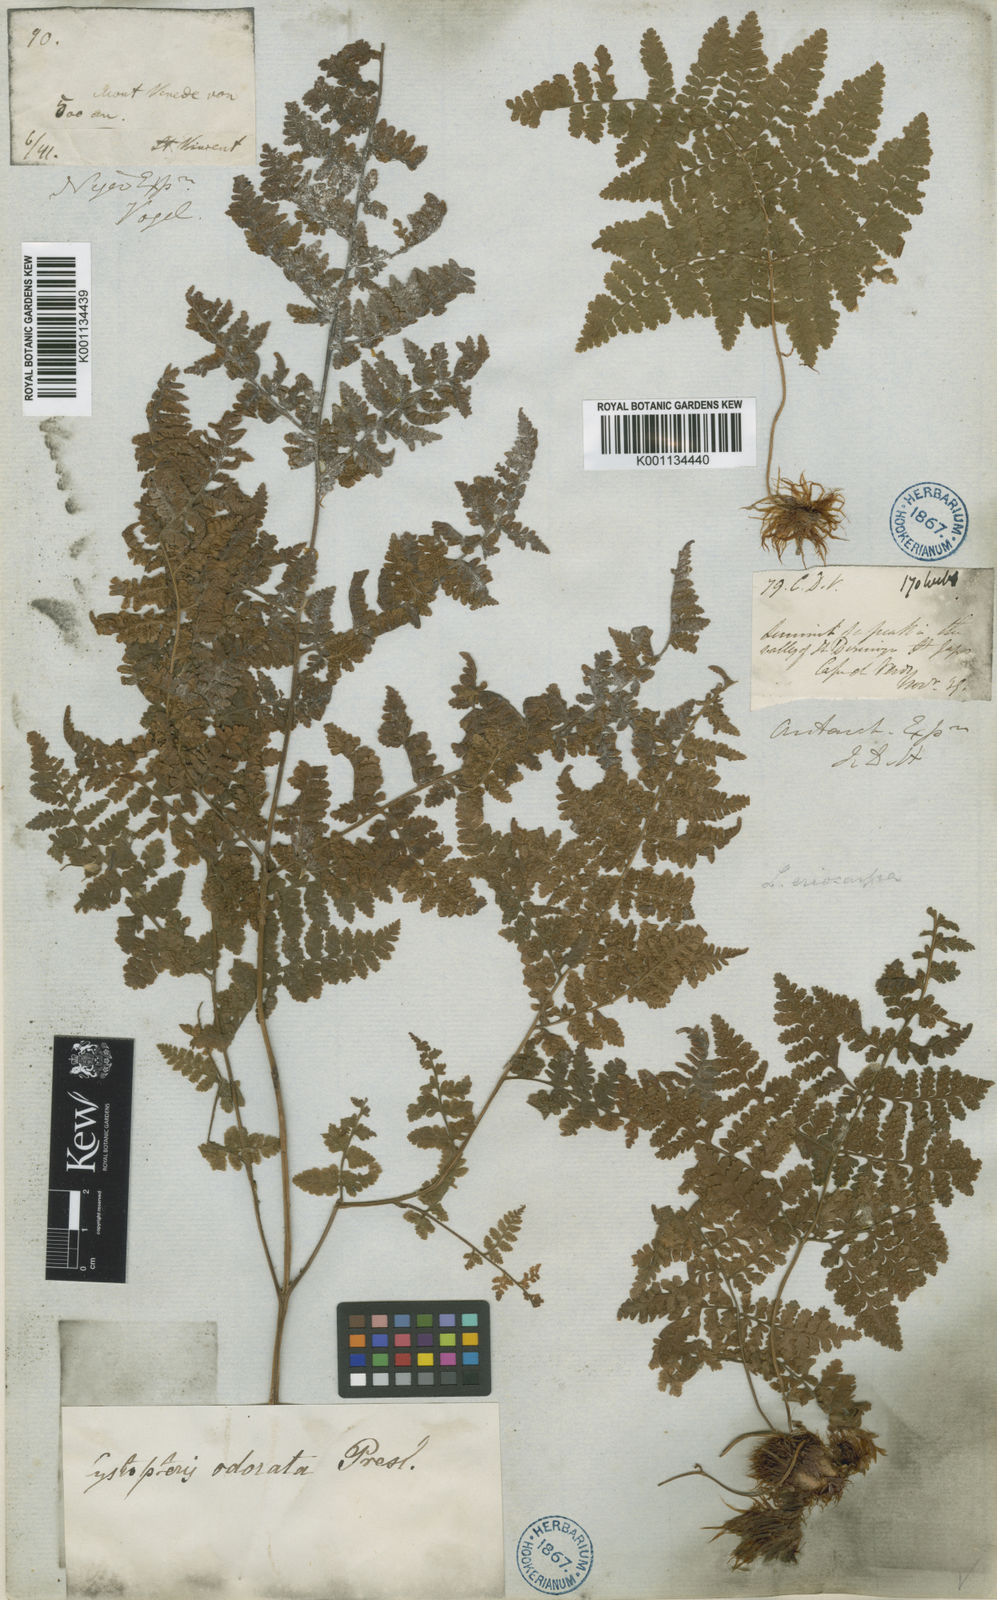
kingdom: Plantae
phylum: Tracheophyta
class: Polypodiopsida
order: Polypodiales
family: Hypodematiaceae
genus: Hypodematium
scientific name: Hypodematium chrysolepis
